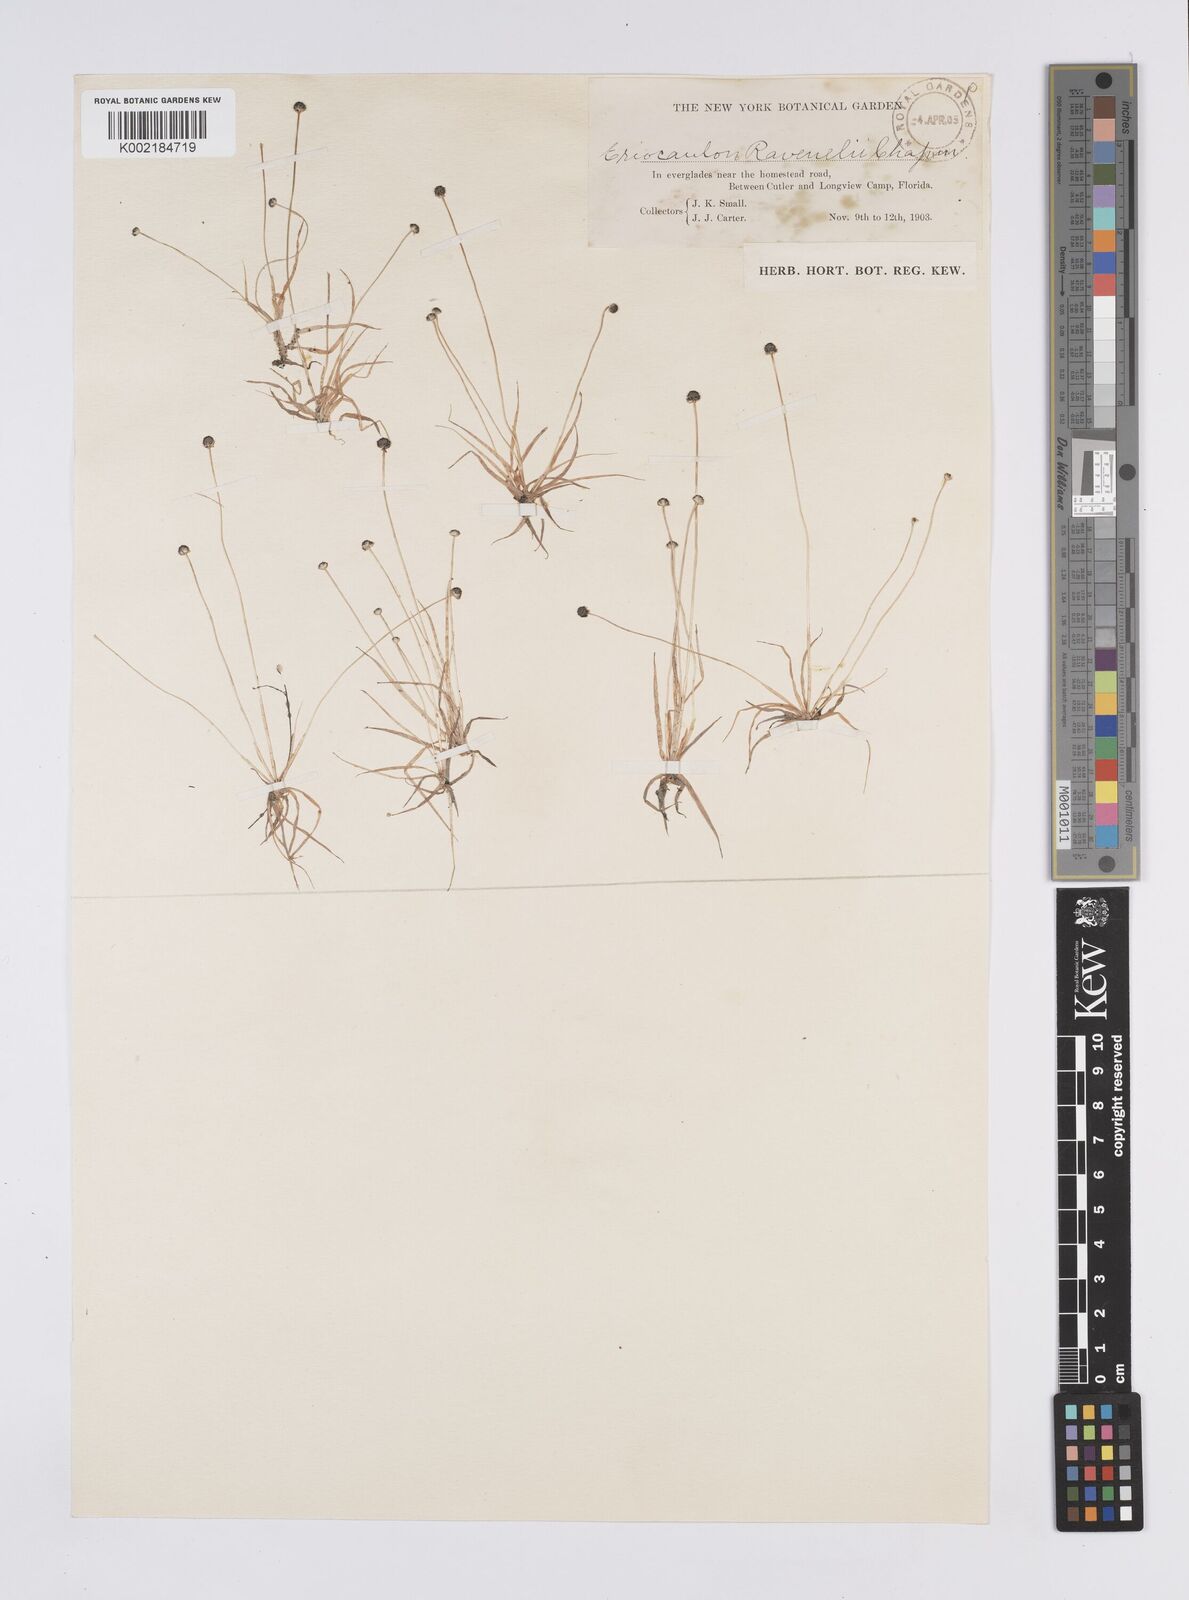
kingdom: Plantae
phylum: Tracheophyta
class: Liliopsida
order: Poales
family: Eriocaulaceae
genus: Eriocaulon
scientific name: Eriocaulon ravenelii
